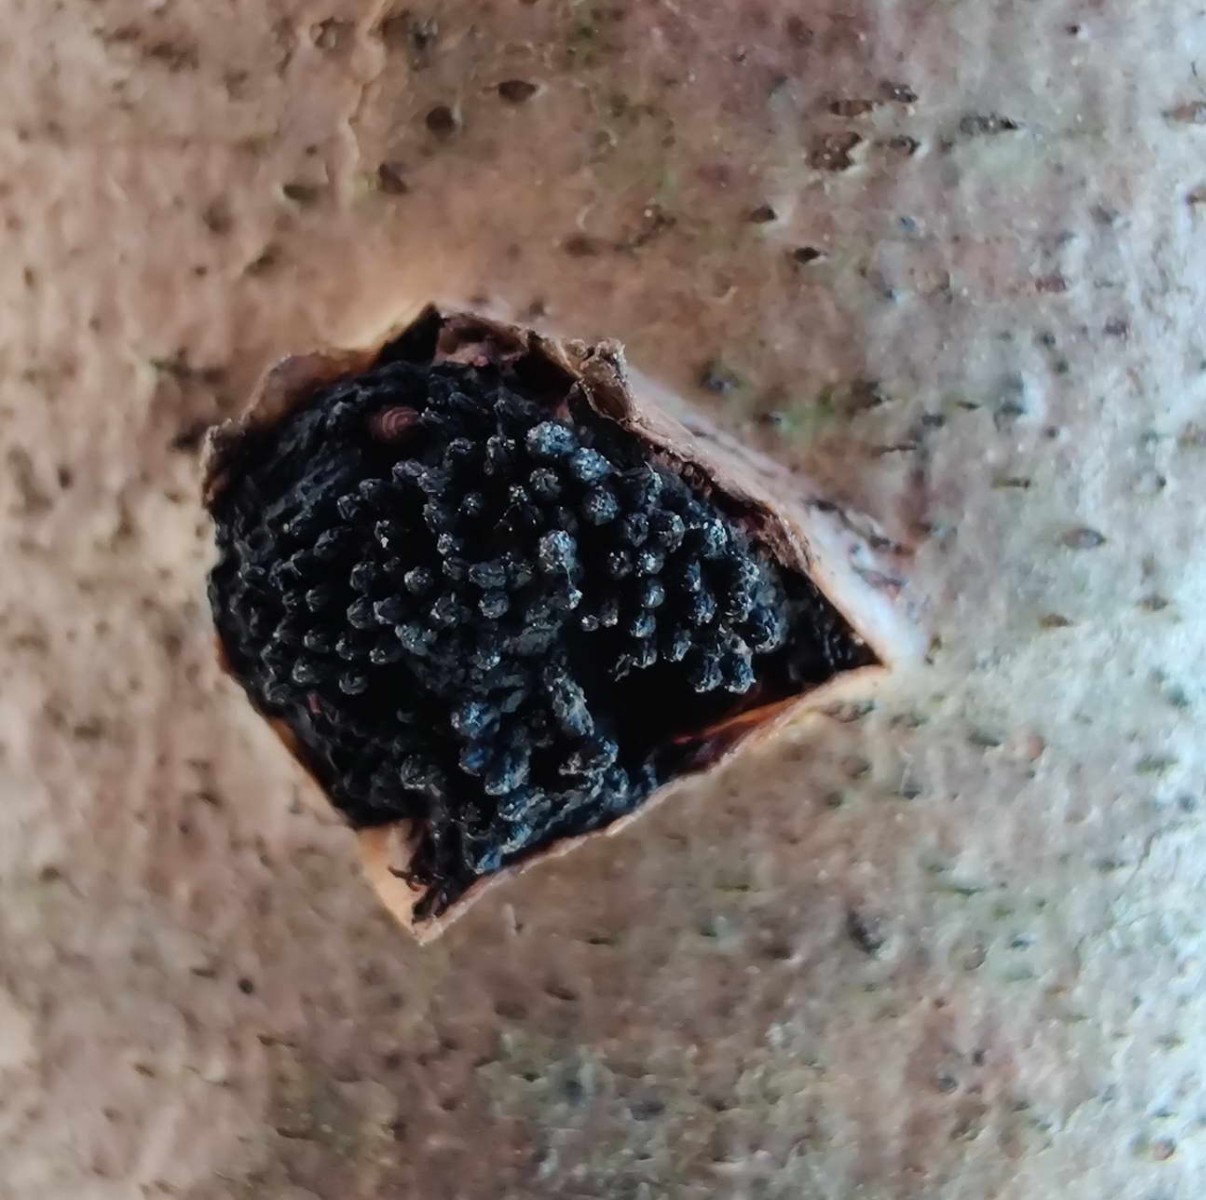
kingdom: Fungi
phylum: Ascomycota
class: Sordariomycetes
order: Xylariales
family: Diatrypaceae
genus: Eutypella
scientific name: Eutypella sorbi
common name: rønne-kulskorpe
